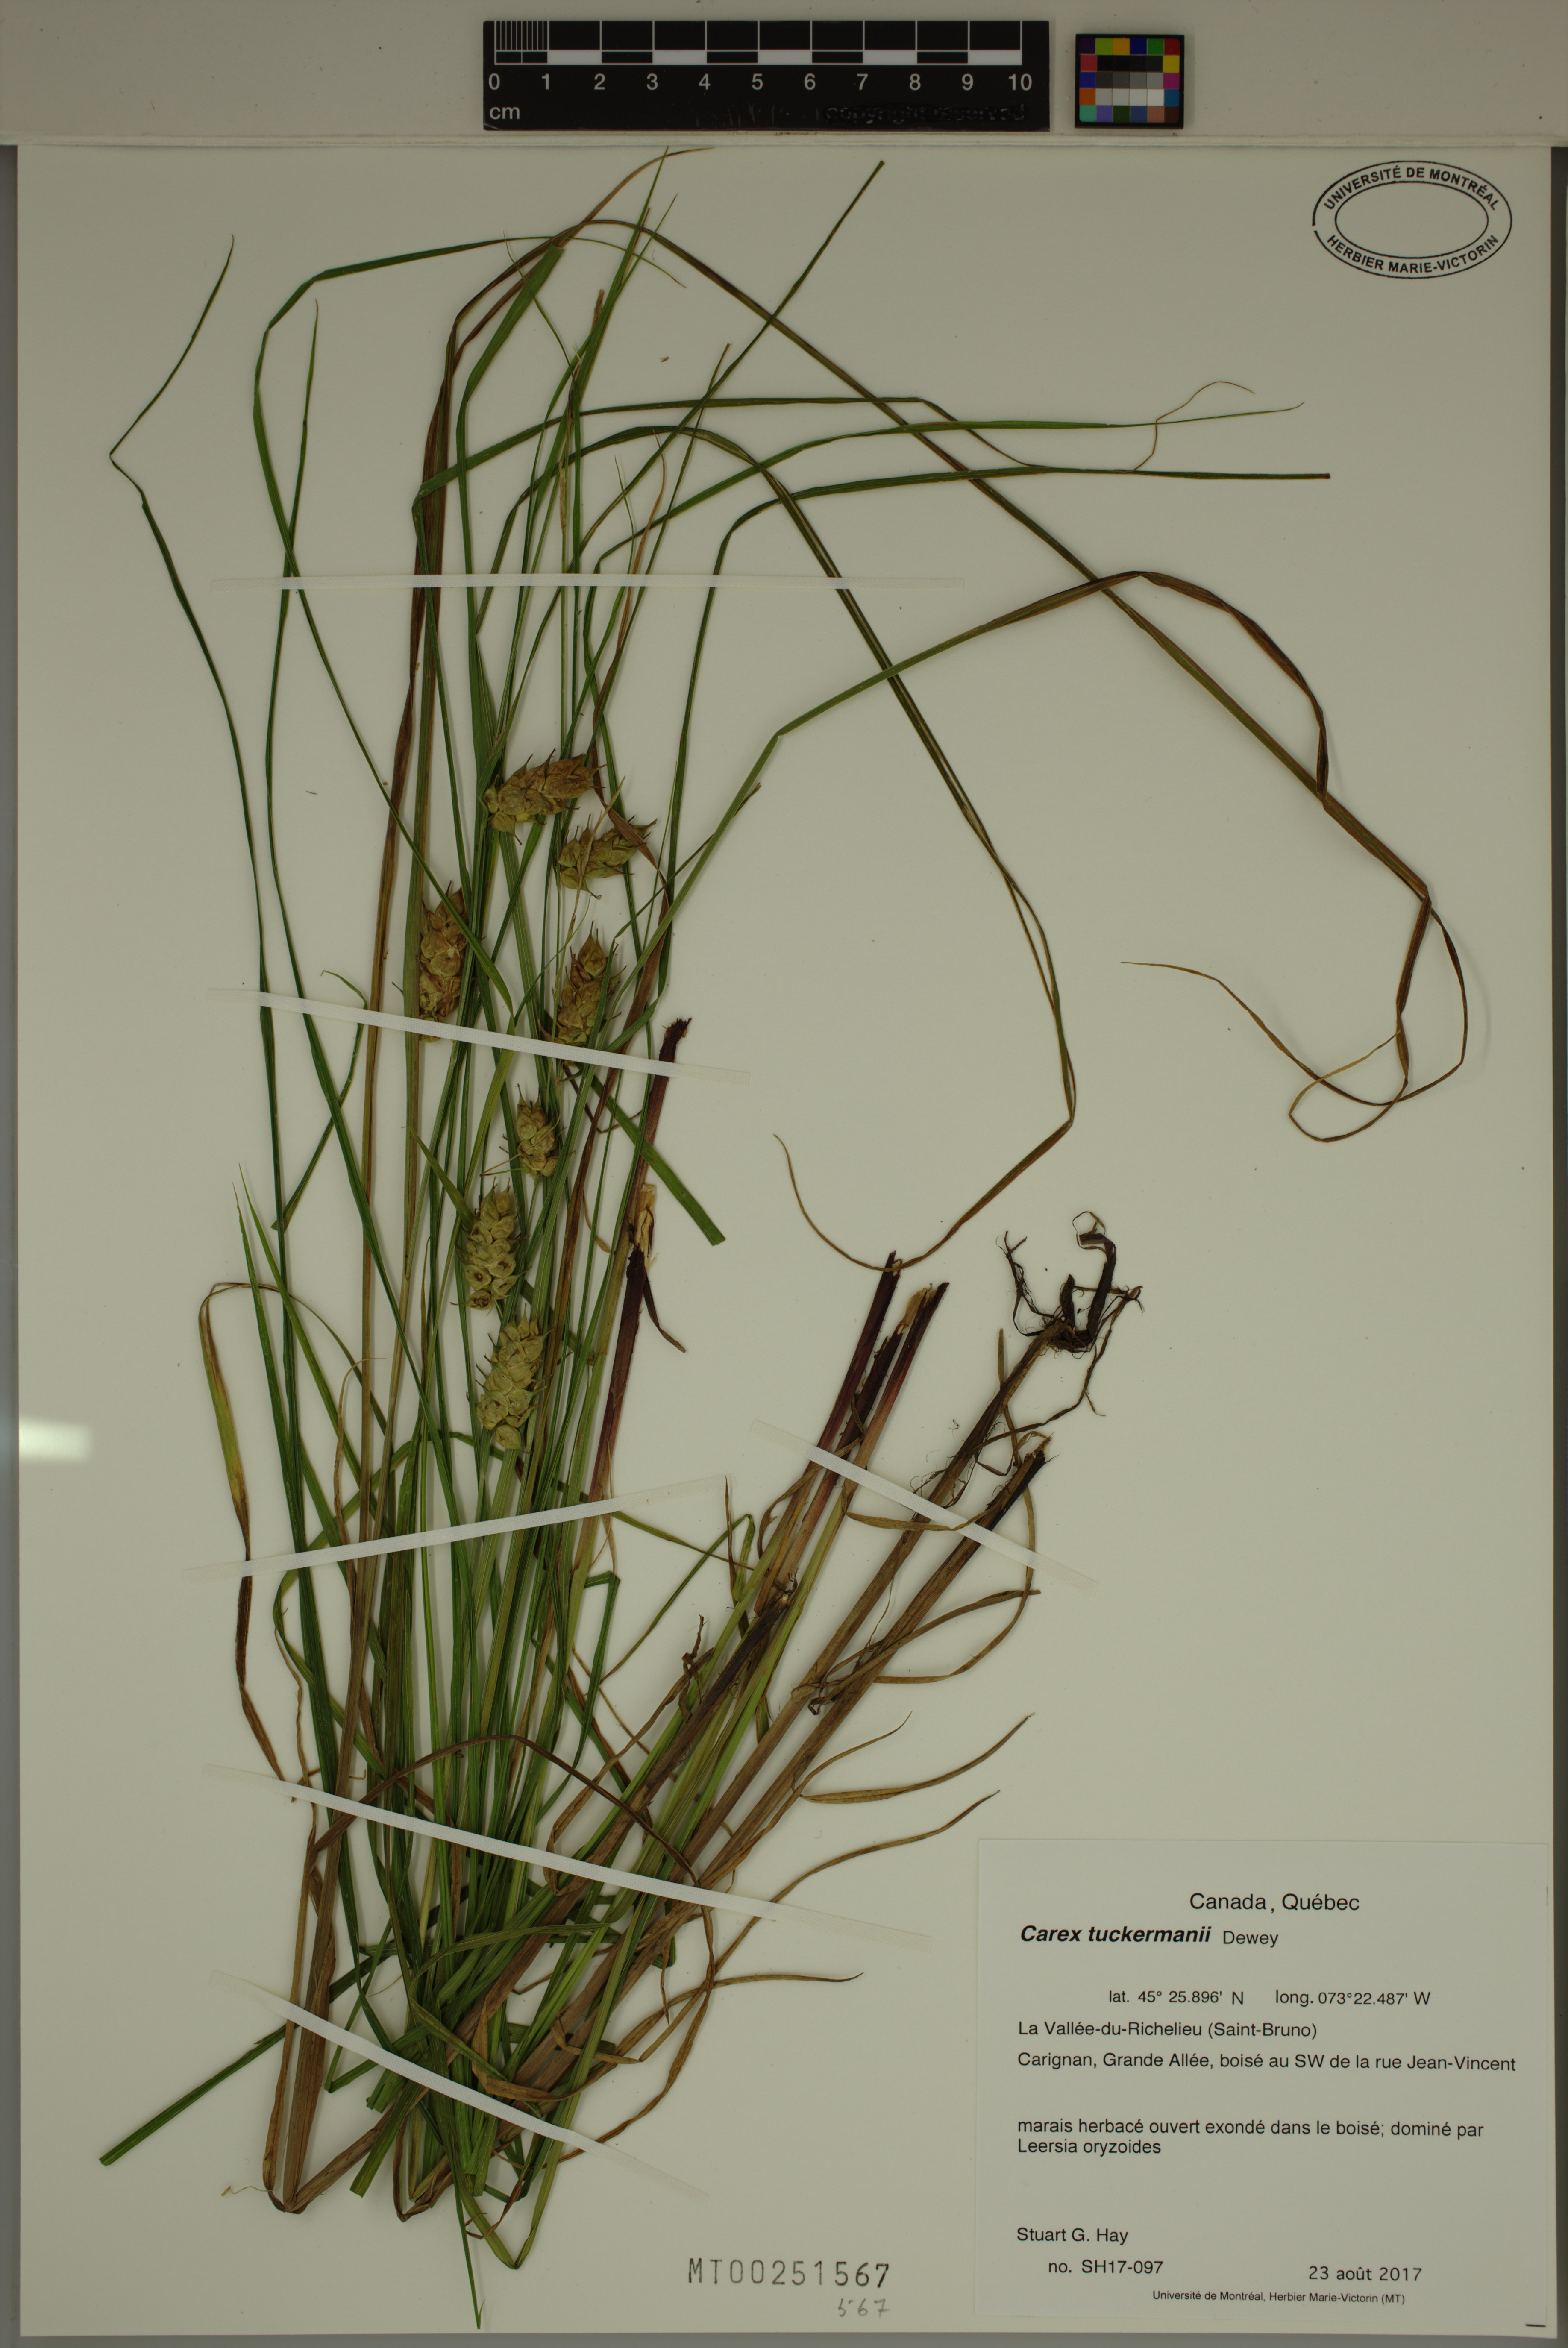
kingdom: Plantae
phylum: Tracheophyta
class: Liliopsida
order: Poales
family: Cyperaceae
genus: Carex
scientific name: Carex tuckermanii
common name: Tuckerman's sedge
